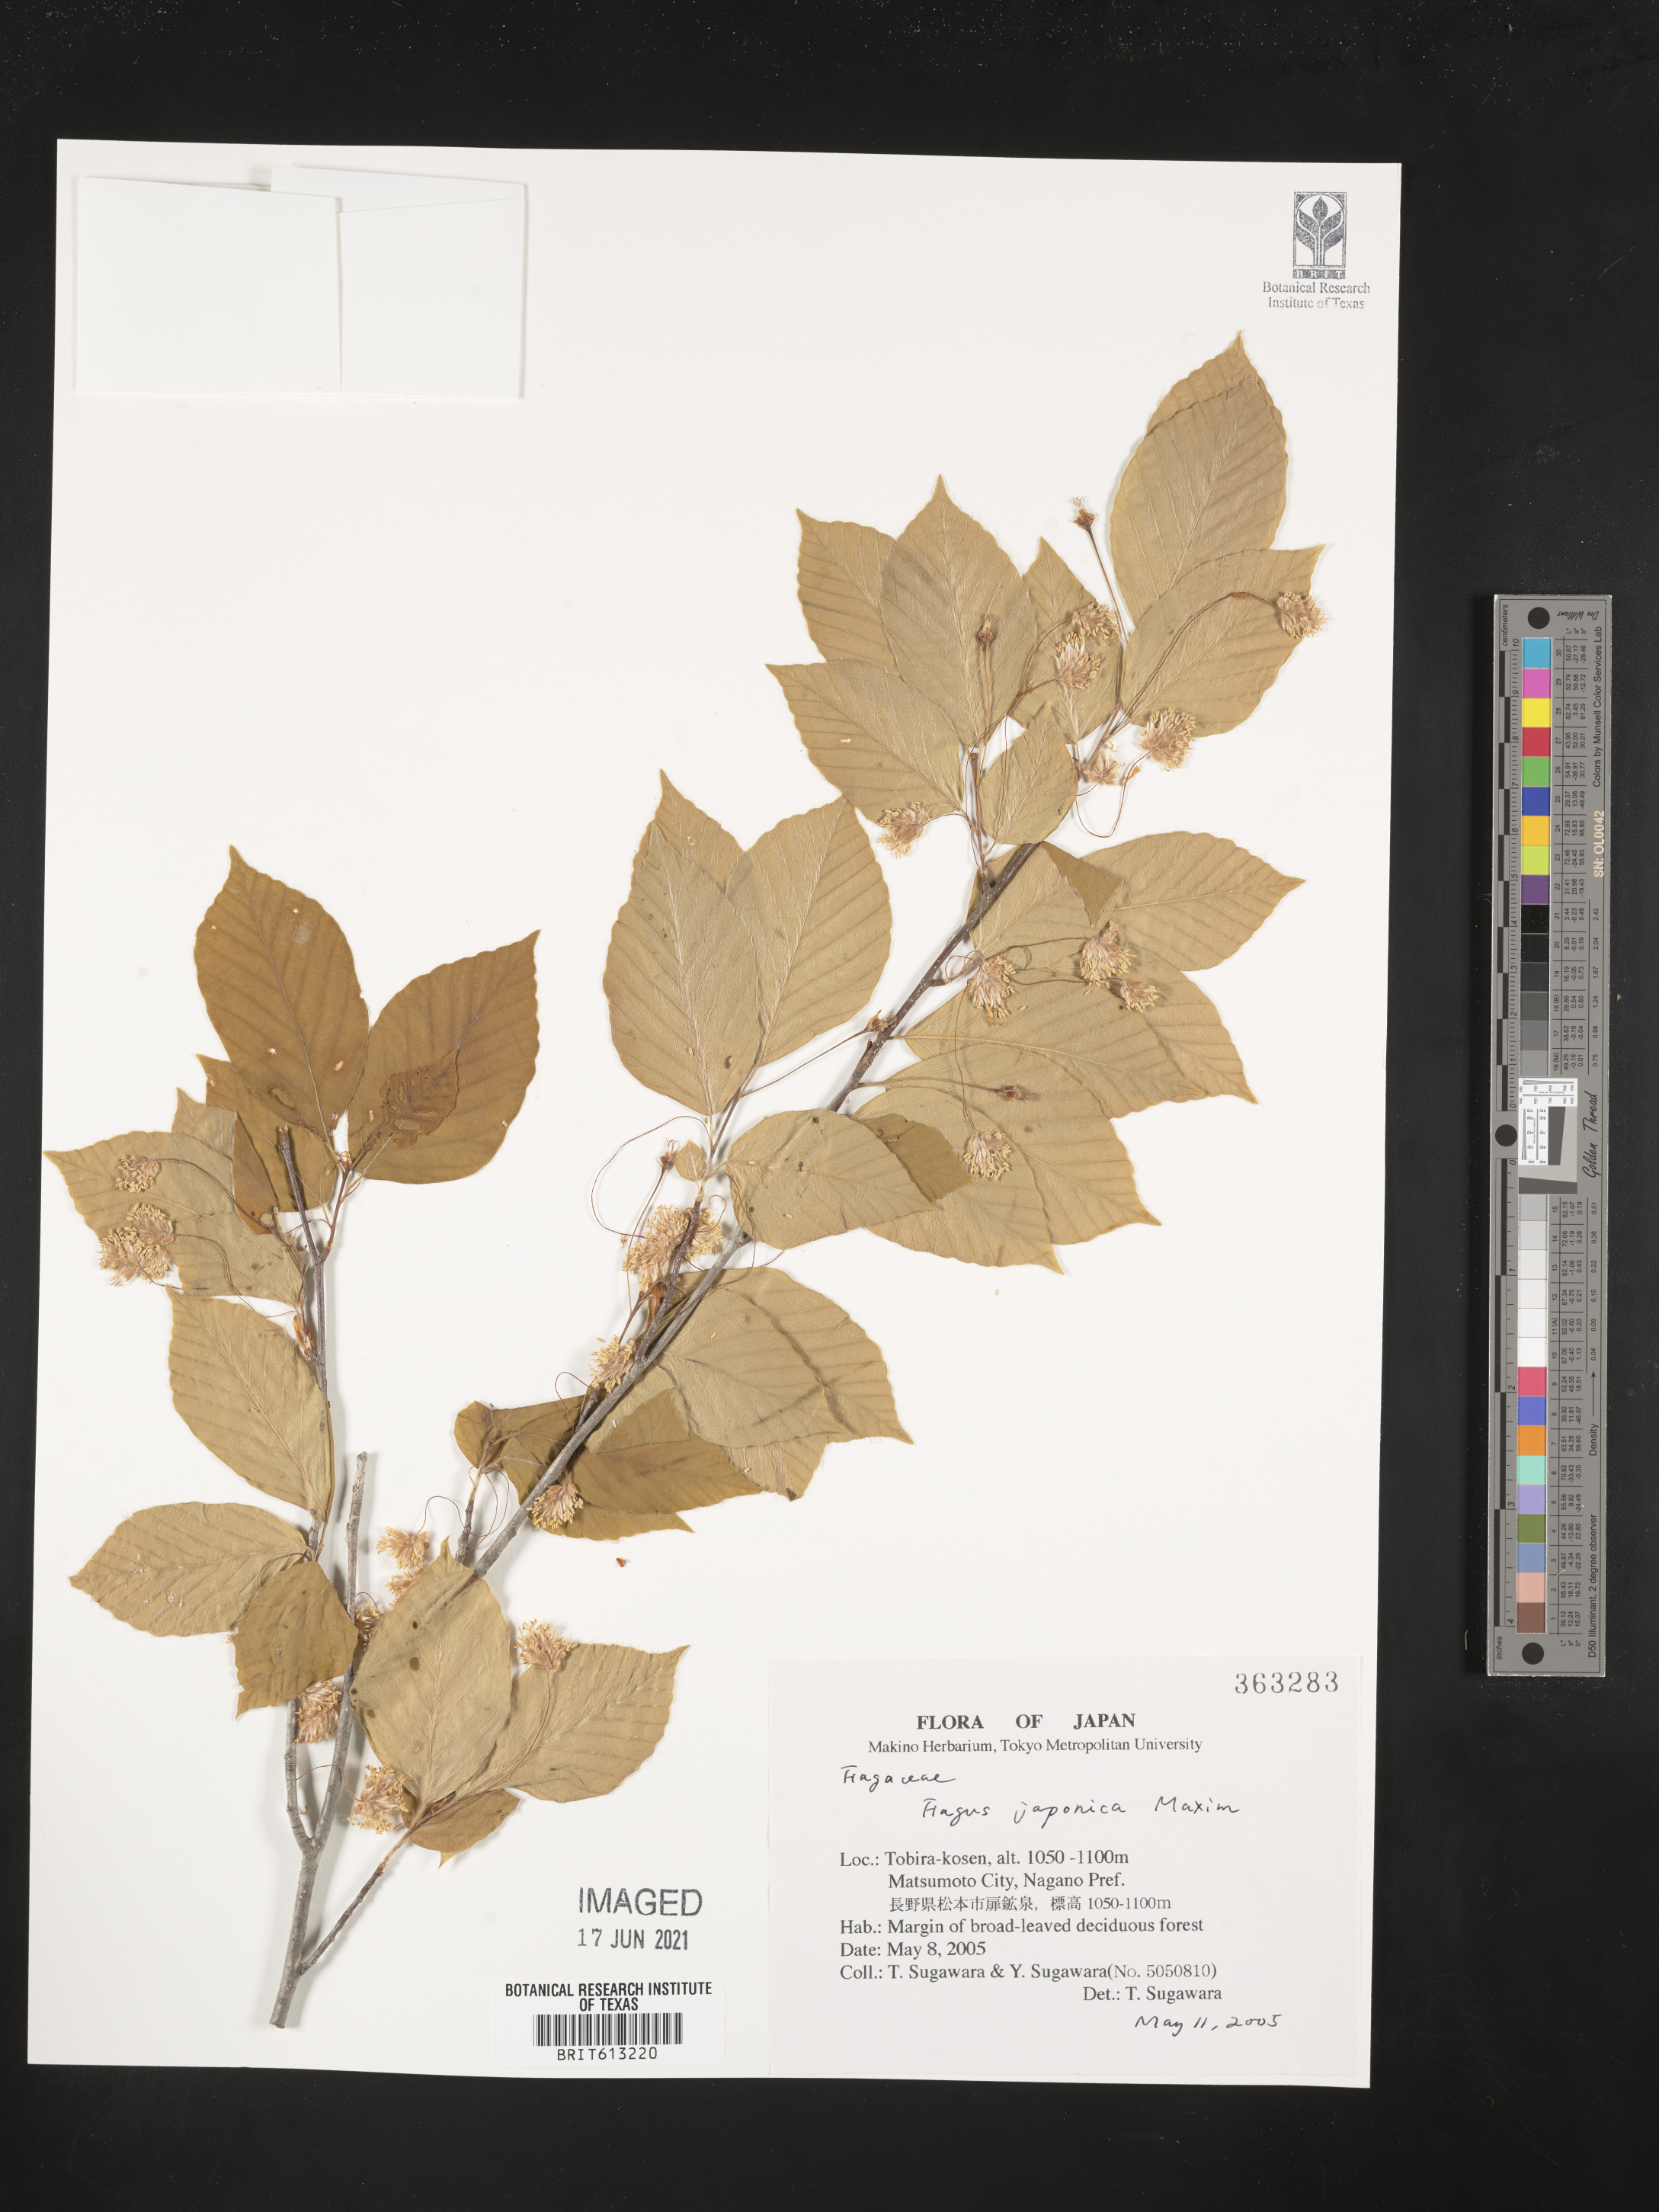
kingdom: Plantae
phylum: Tracheophyta
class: Magnoliopsida
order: Fagales
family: Fagaceae
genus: Fagus
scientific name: Fagus japonica
